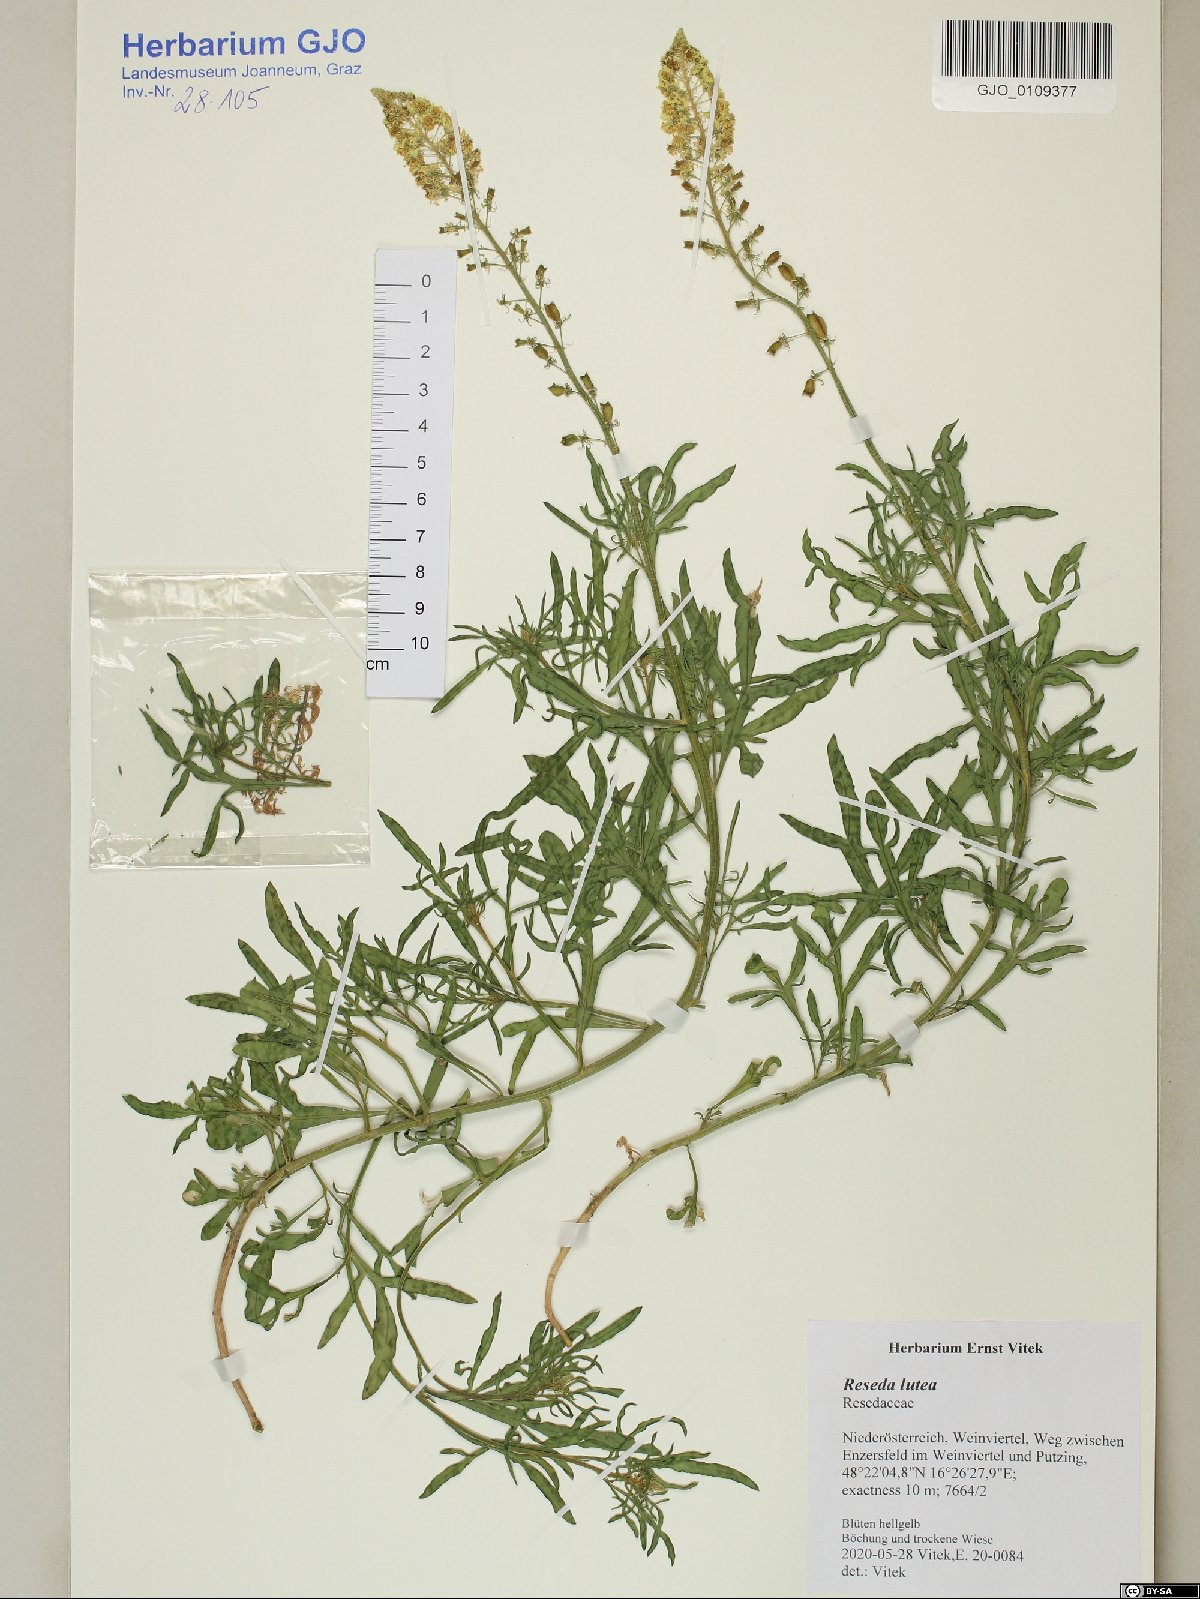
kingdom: Plantae
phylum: Tracheophyta
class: Magnoliopsida
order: Brassicales
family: Resedaceae
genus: Reseda
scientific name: Reseda lutea
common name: Wild mignonette
